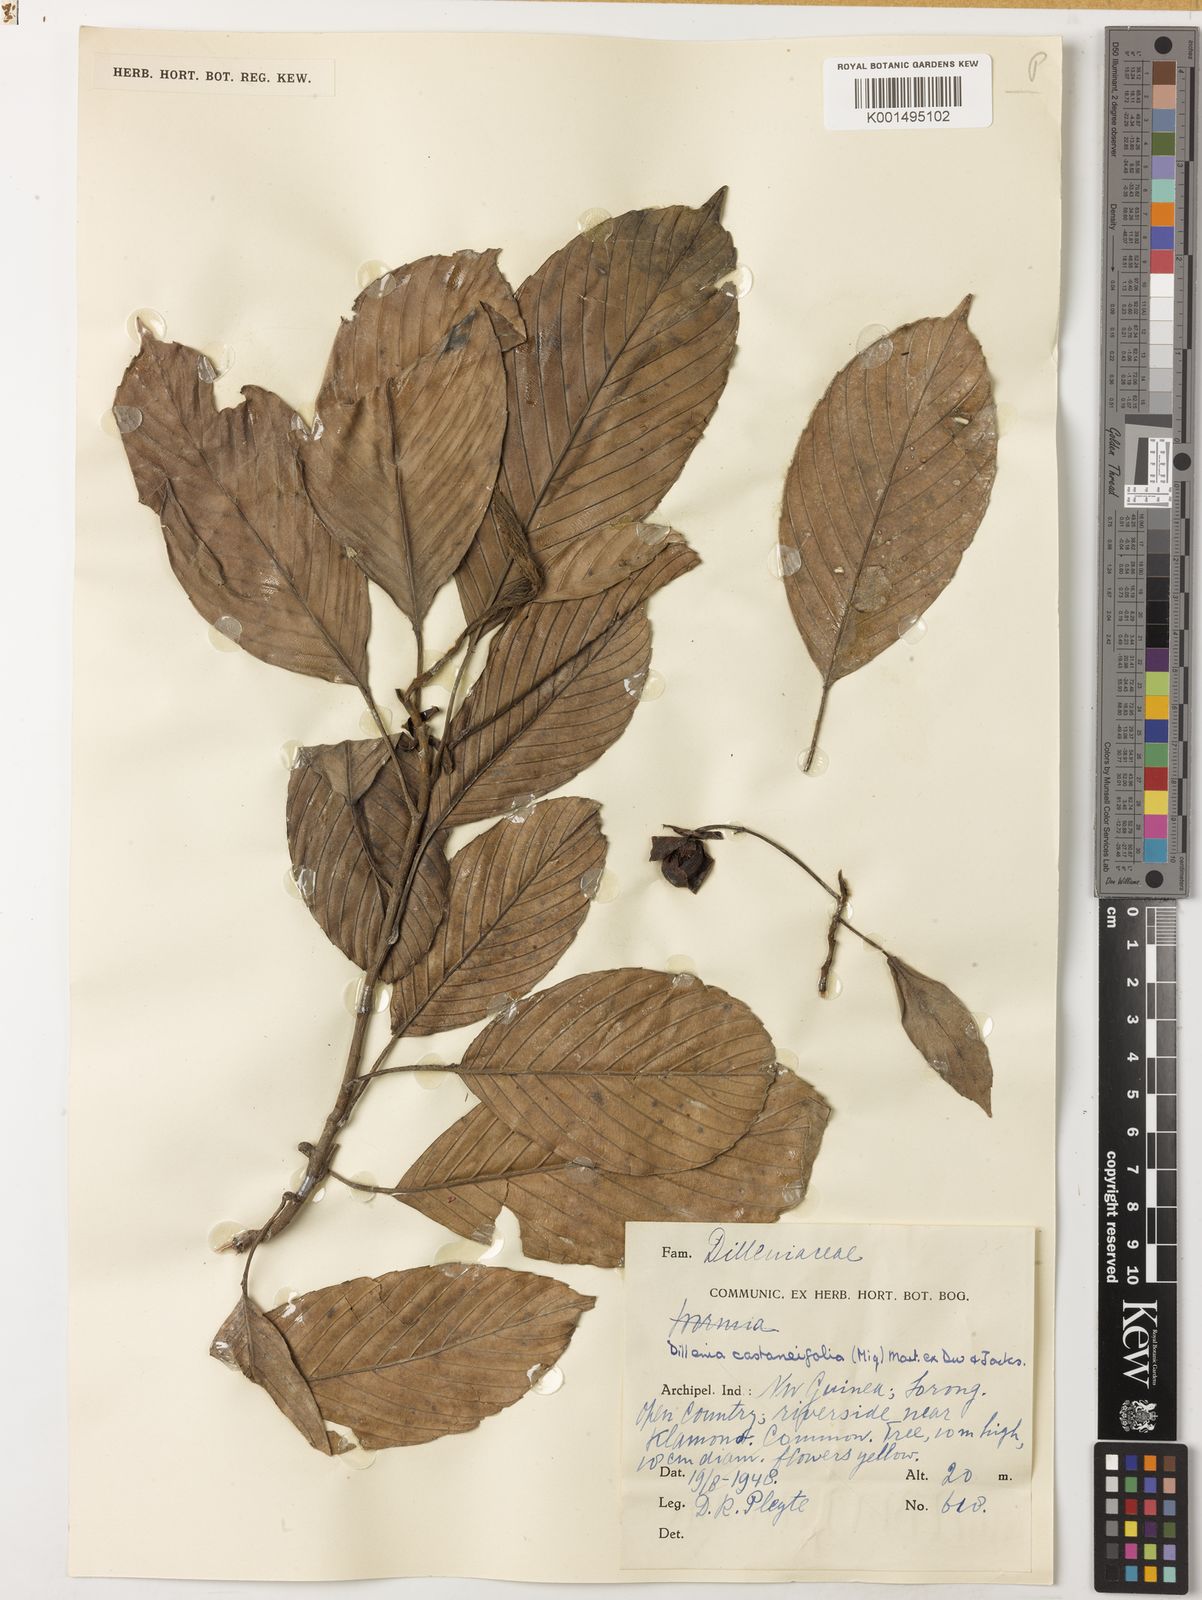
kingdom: Plantae
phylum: Tracheophyta
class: Magnoliopsida
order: Dilleniales
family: Dilleniaceae
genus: Dillenia
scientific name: Dillenia castaneifolia
